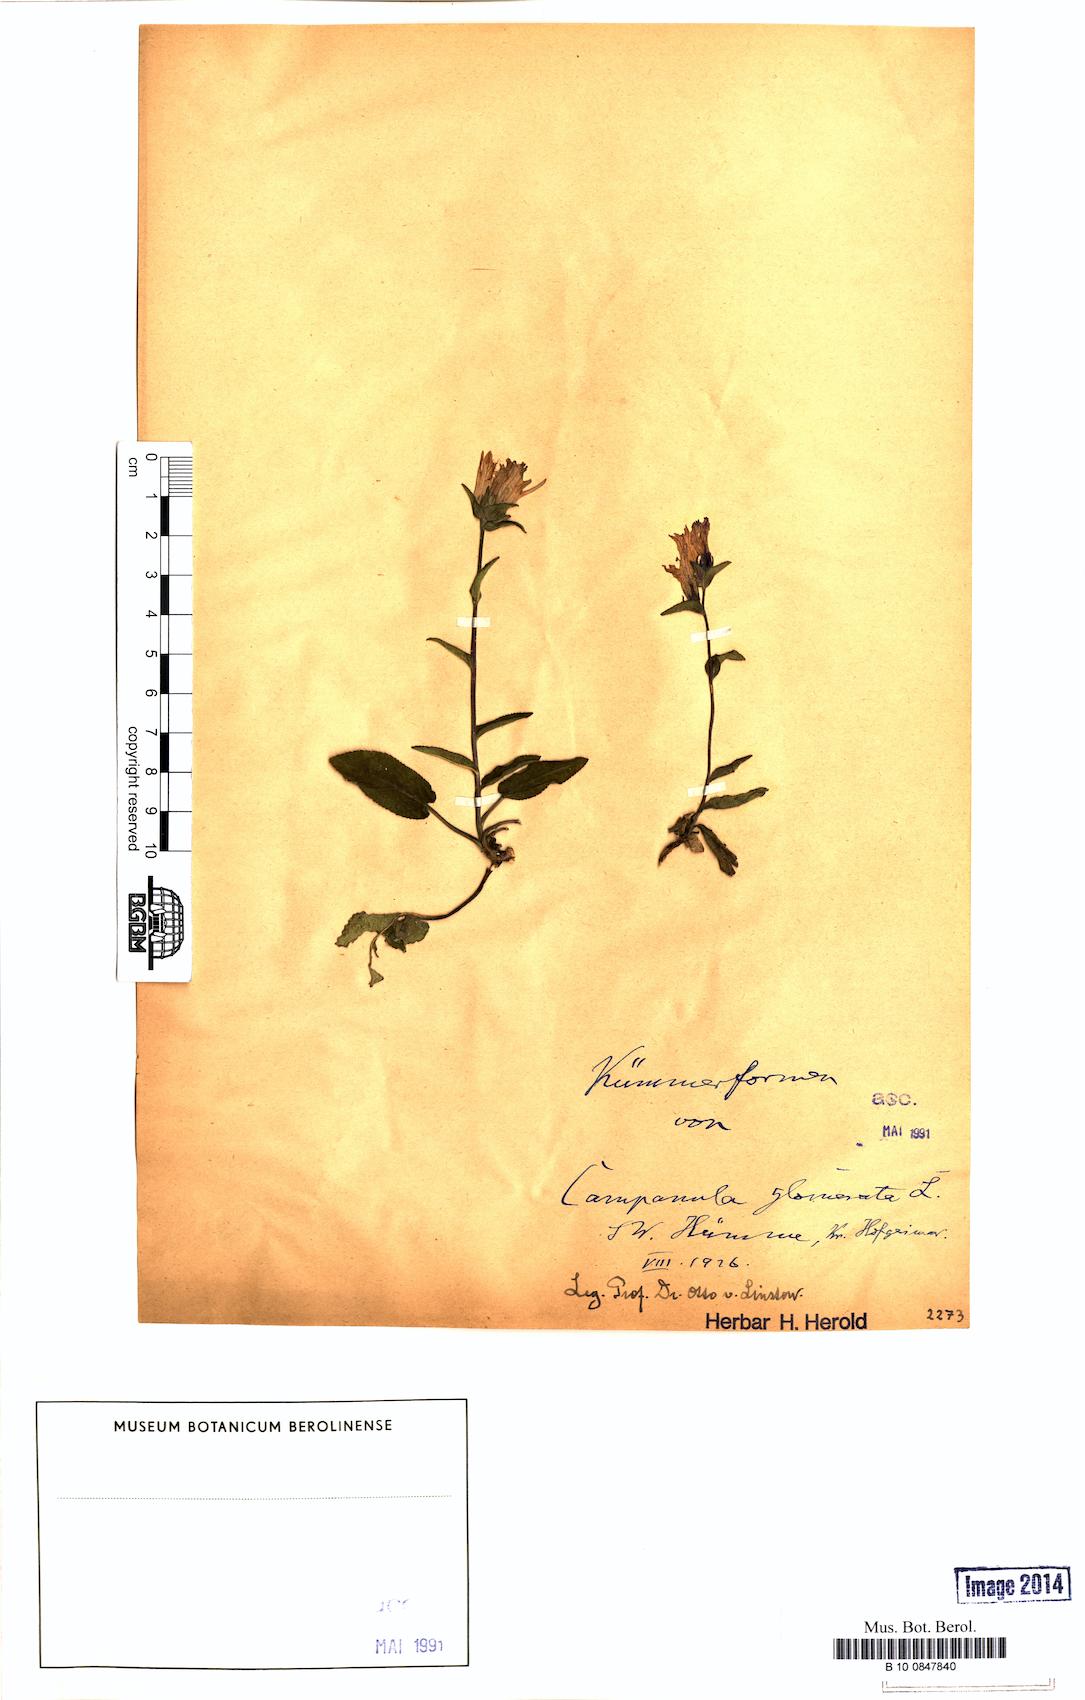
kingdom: Plantae
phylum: Tracheophyta
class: Magnoliopsida
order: Asterales
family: Campanulaceae
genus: Campanula
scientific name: Campanula glomerata
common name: Clustered bellflower
